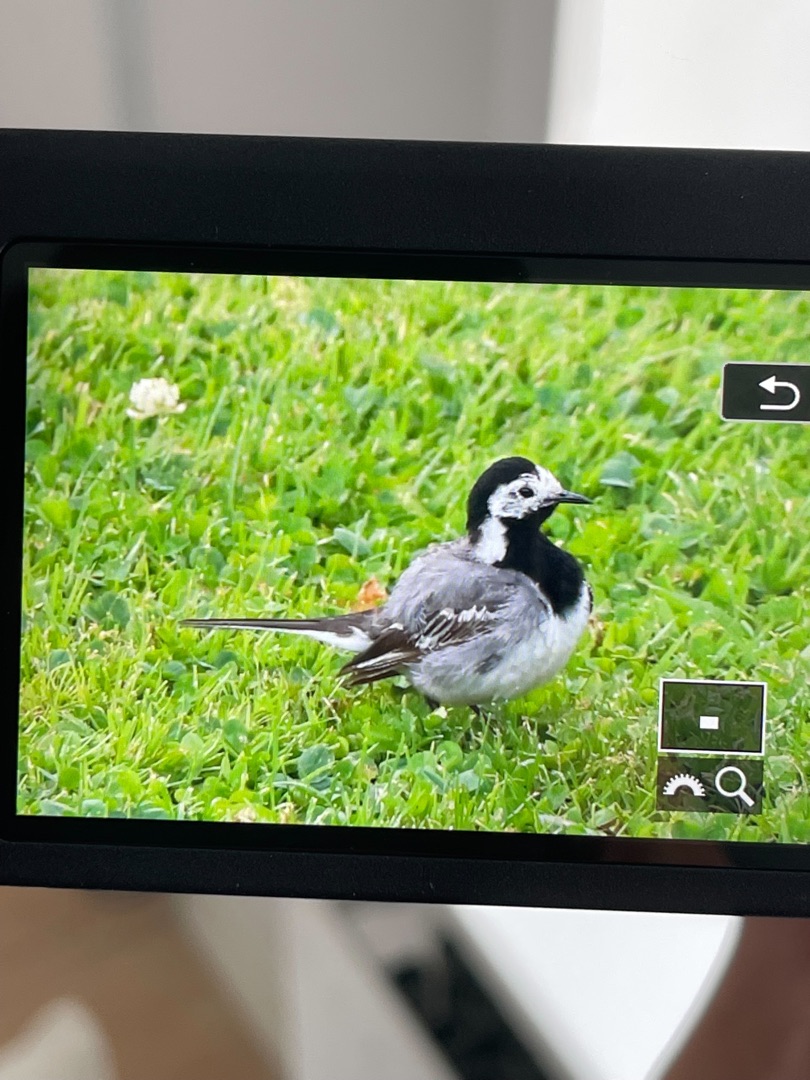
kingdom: Animalia
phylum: Chordata
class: Aves
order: Passeriformes
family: Motacillidae
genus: Motacilla
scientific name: Motacilla alba
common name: Hvid vipstjert
